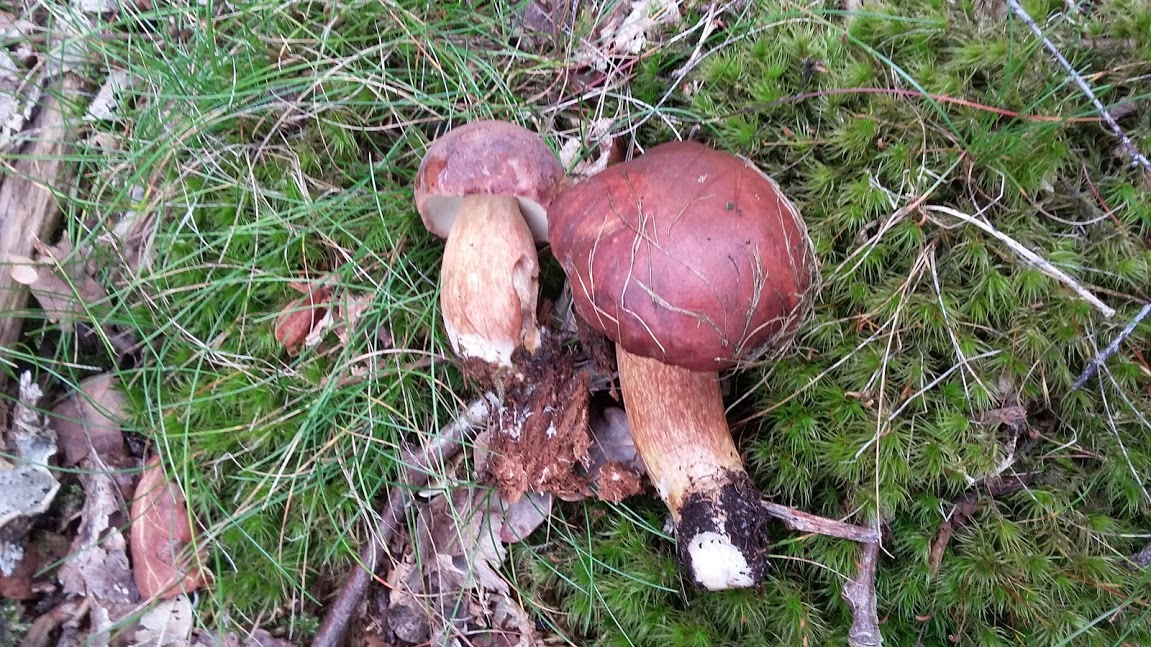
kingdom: Fungi
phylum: Basidiomycota
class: Agaricomycetes
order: Boletales
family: Boletaceae
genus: Imleria
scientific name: Imleria badia
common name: brunstokket rørhat
